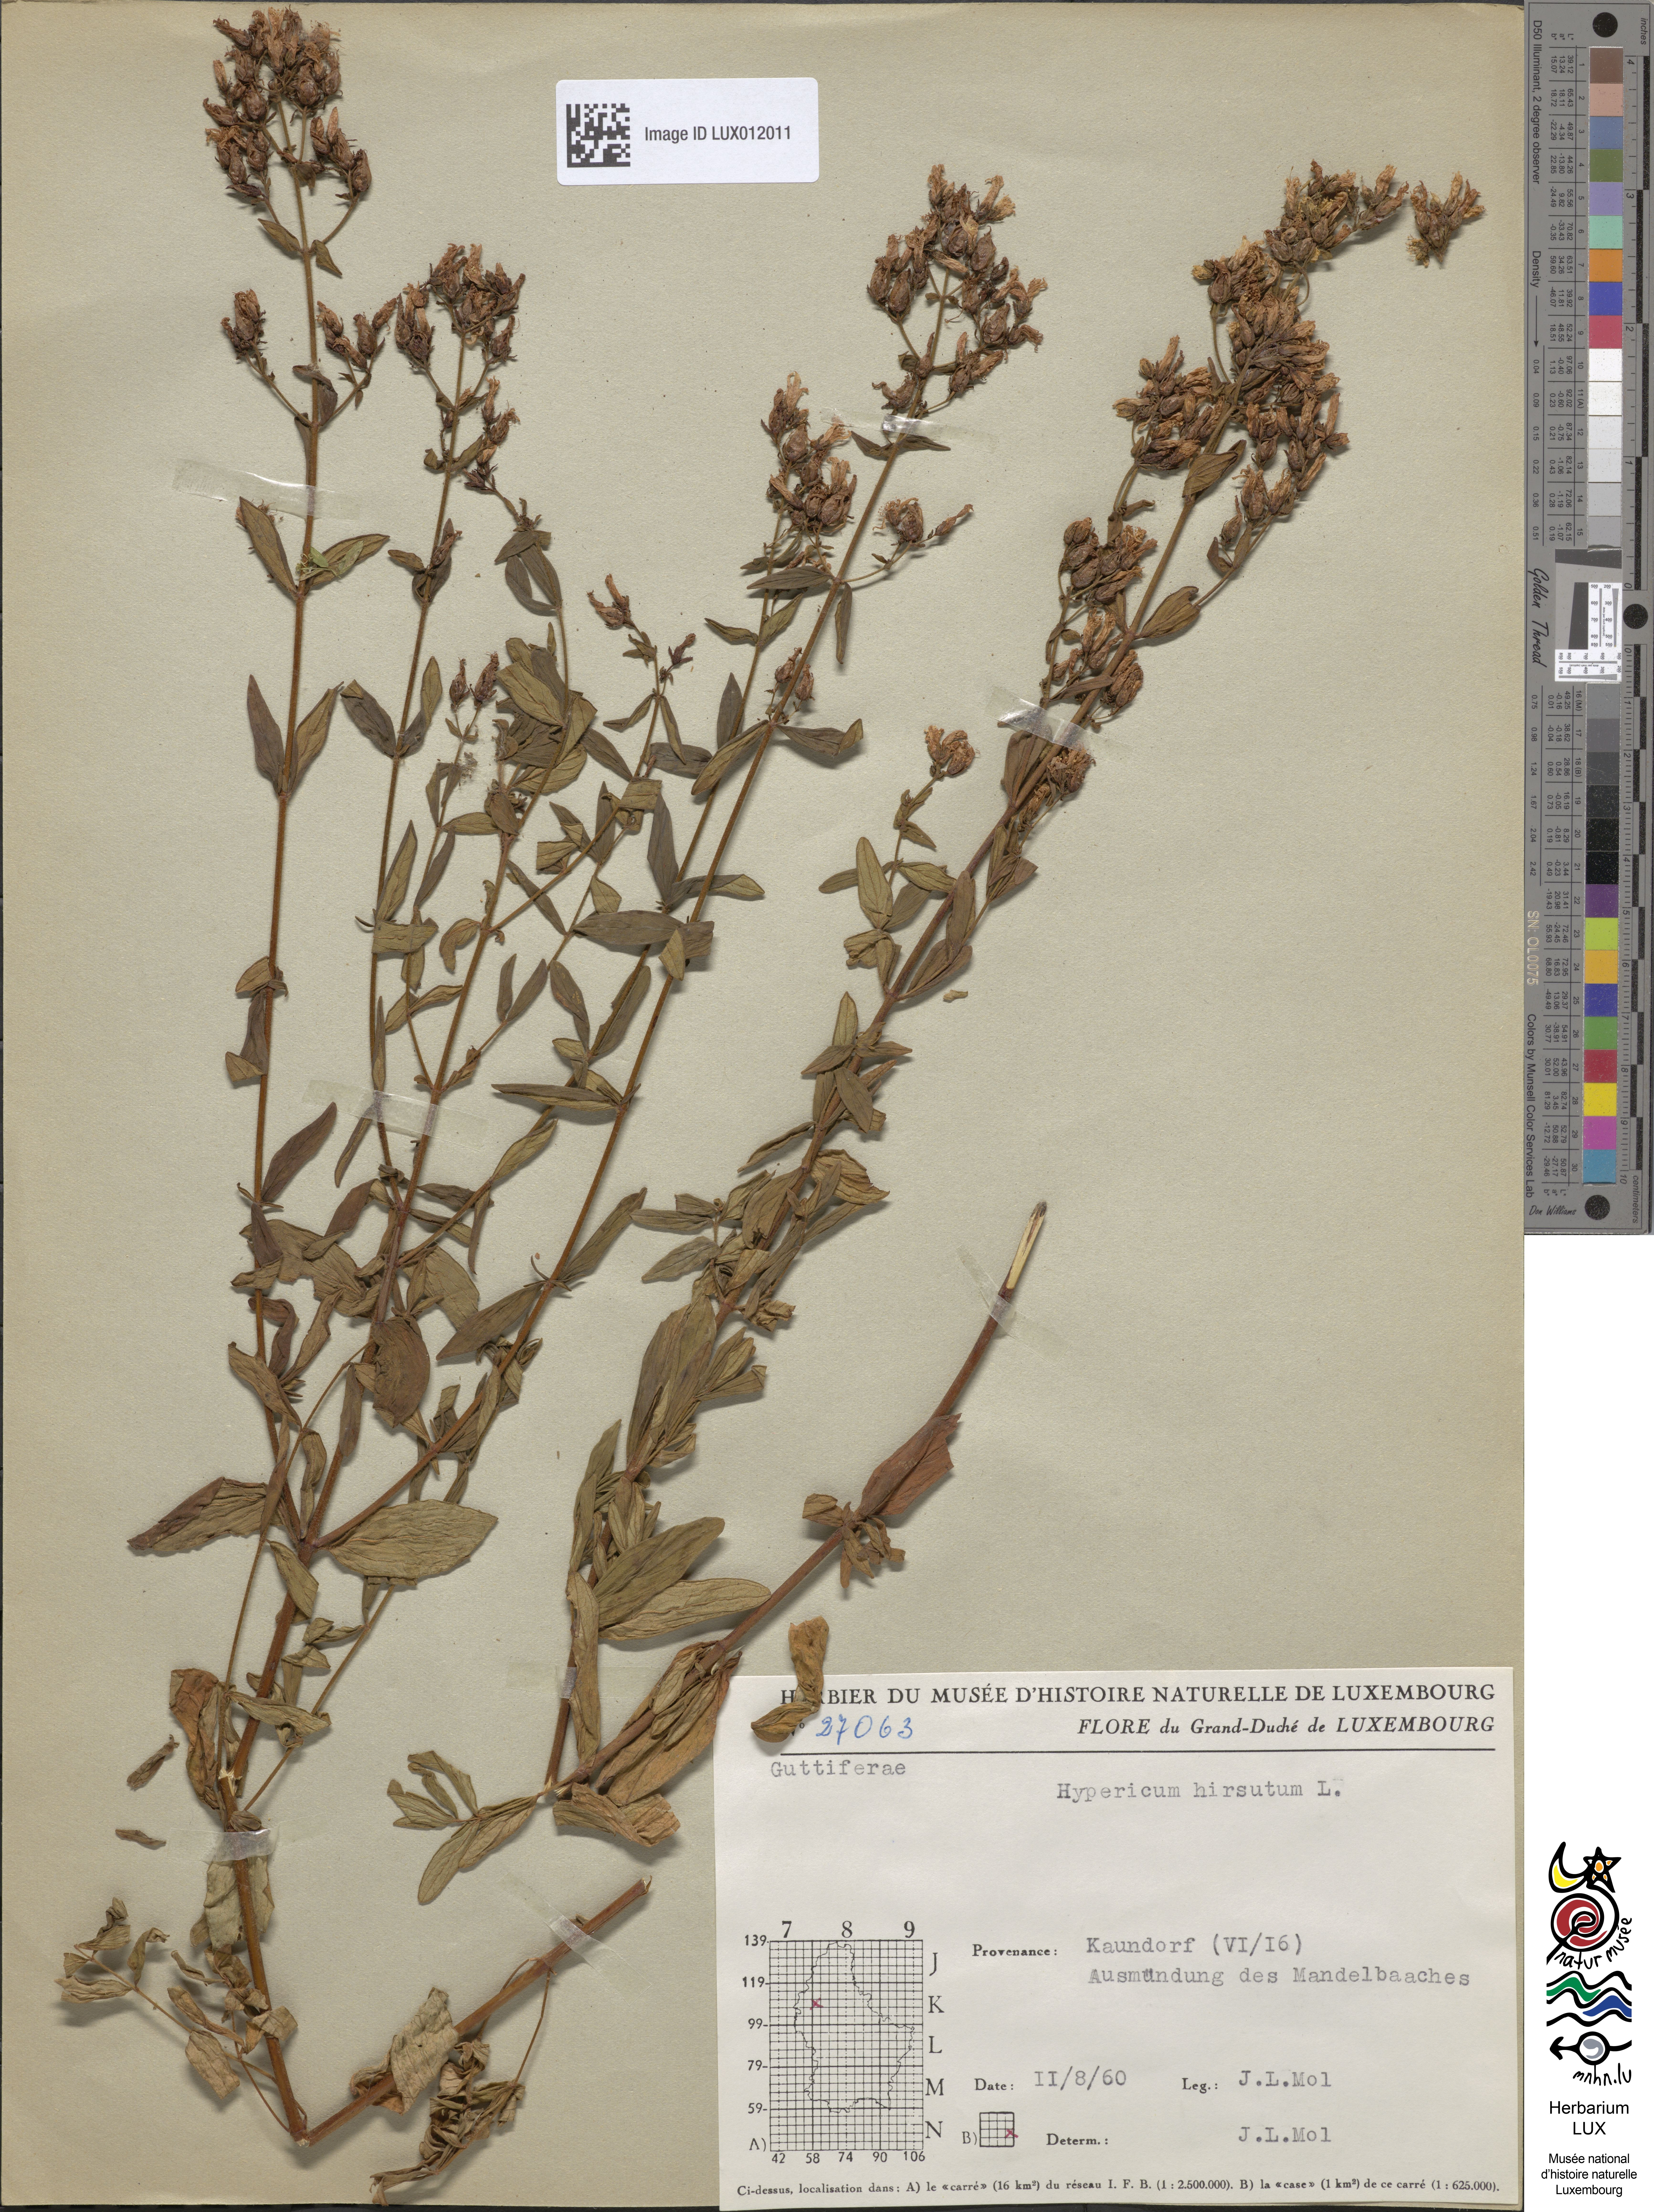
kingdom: Plantae
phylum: Tracheophyta
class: Magnoliopsida
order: Malpighiales
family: Hypericaceae
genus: Hypericum
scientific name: Hypericum hirsutum
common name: Hairy st. john's-wort
